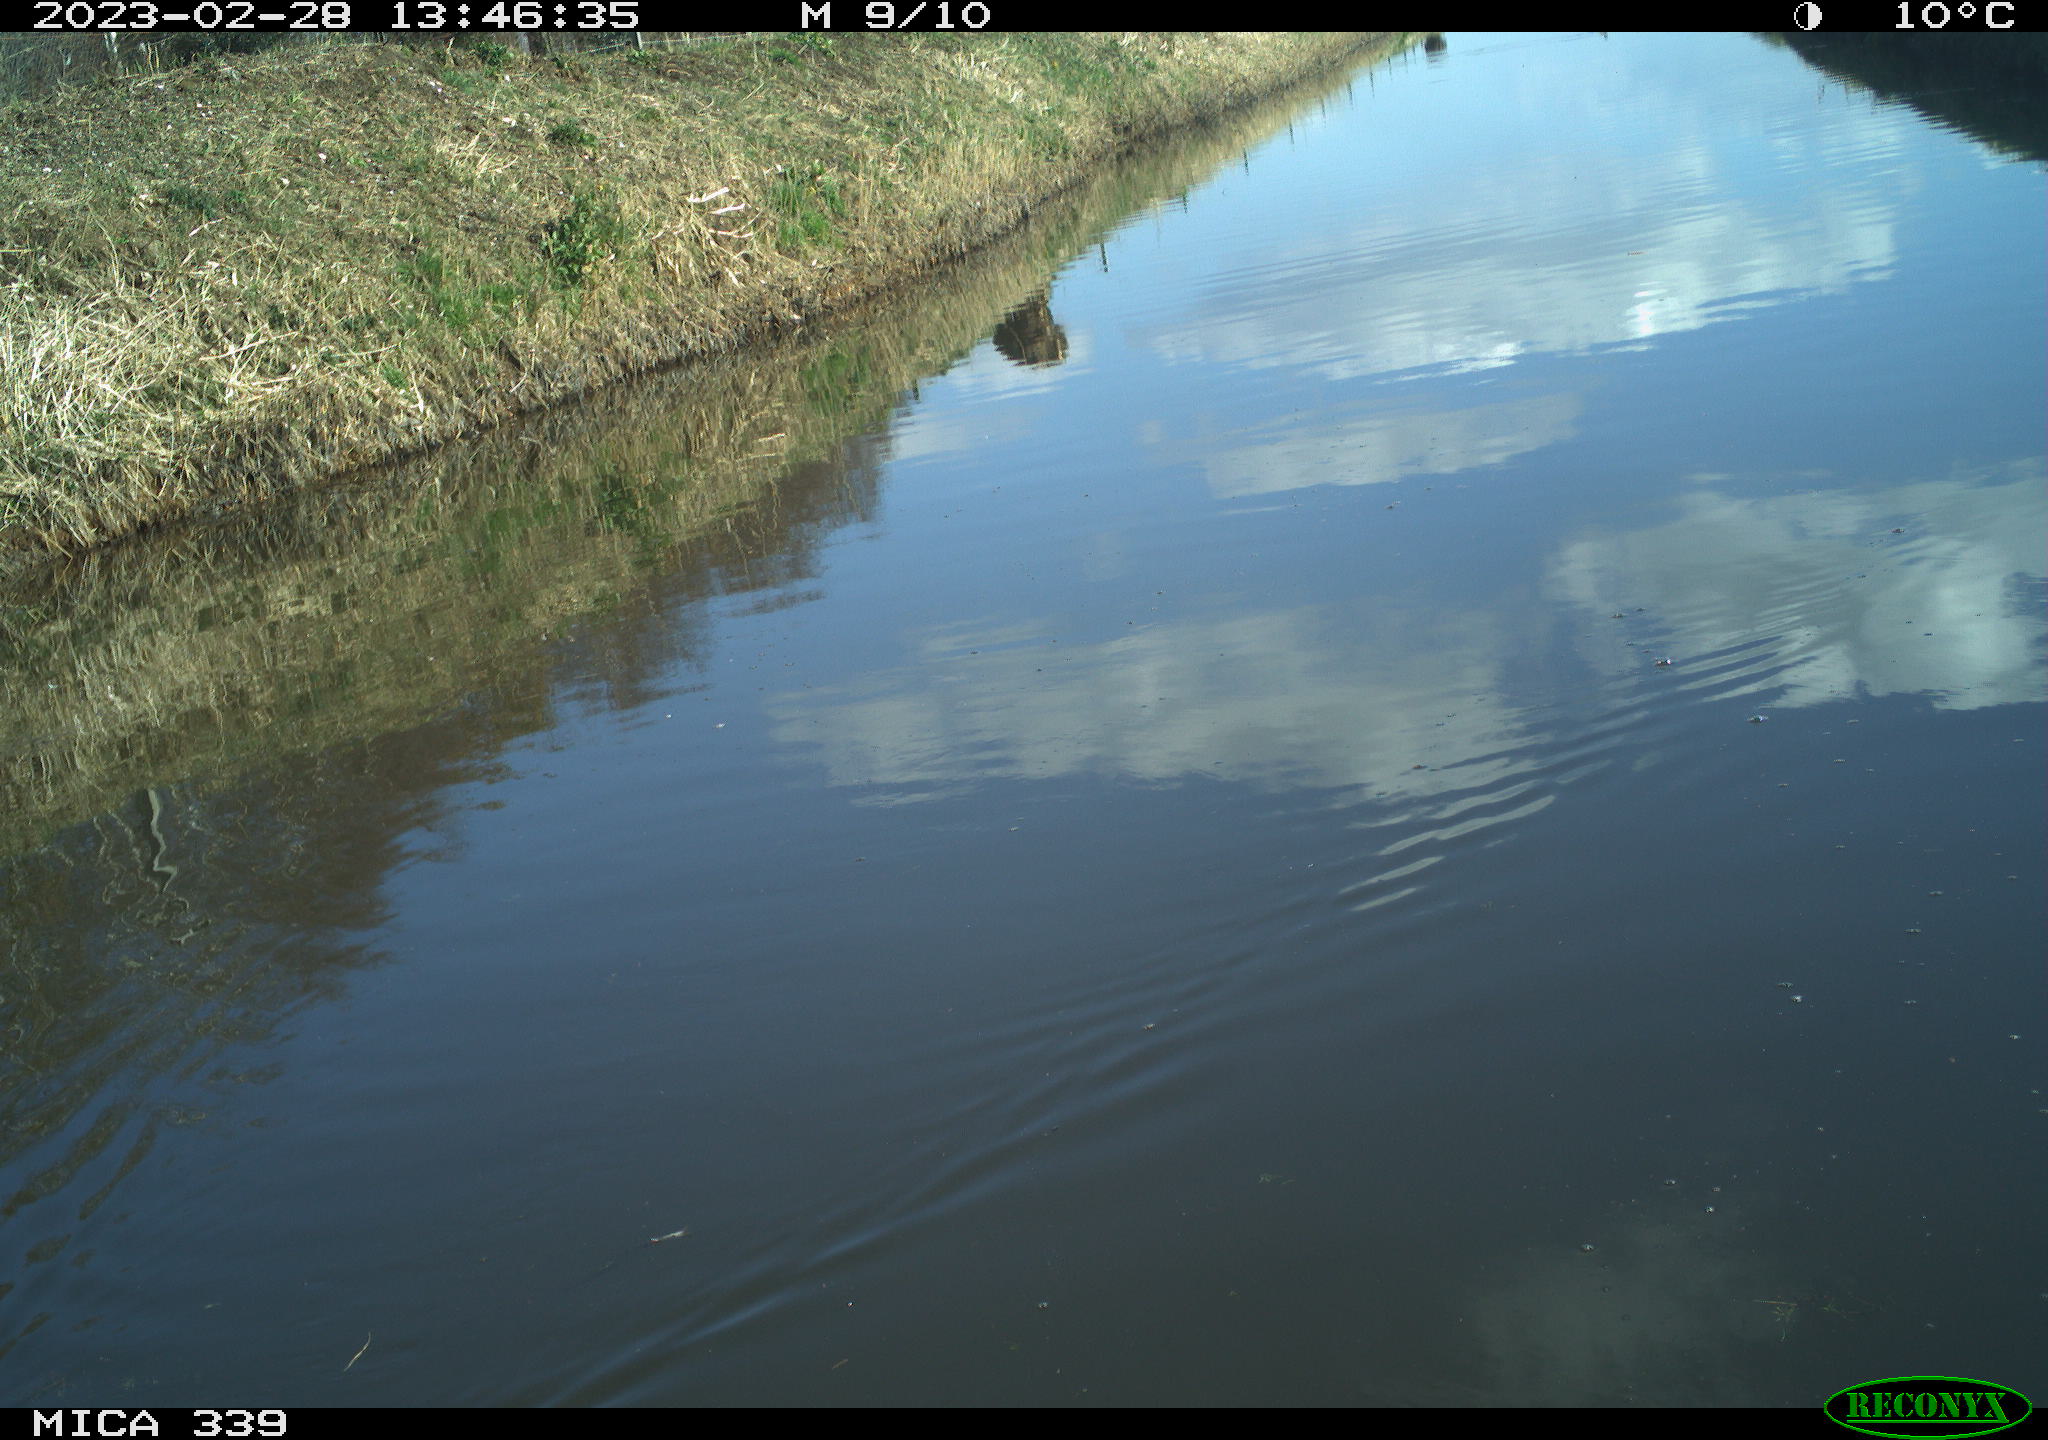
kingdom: Animalia
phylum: Chordata
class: Aves
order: Gruiformes
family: Rallidae
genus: Gallinula
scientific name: Gallinula chloropus
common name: Common moorhen
